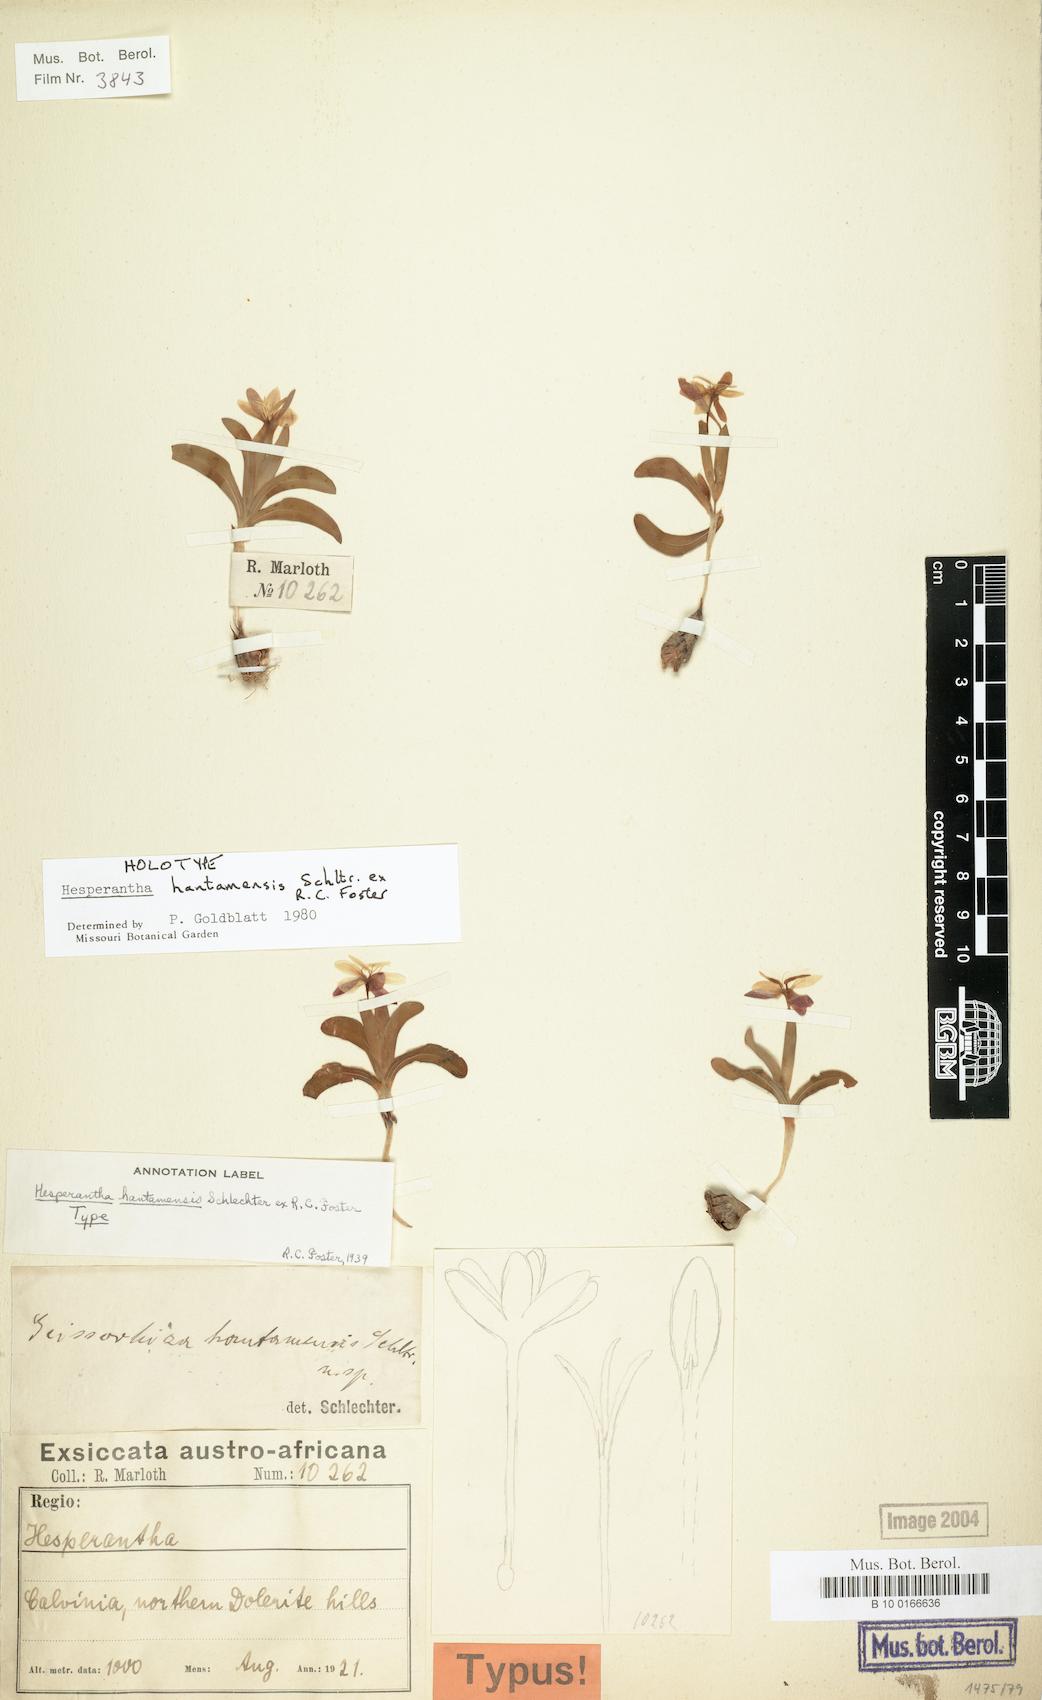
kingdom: Plantae
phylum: Tracheophyta
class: Liliopsida
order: Asparagales
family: Iridaceae
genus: Hesperantha
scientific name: Hesperantha hantamensis
